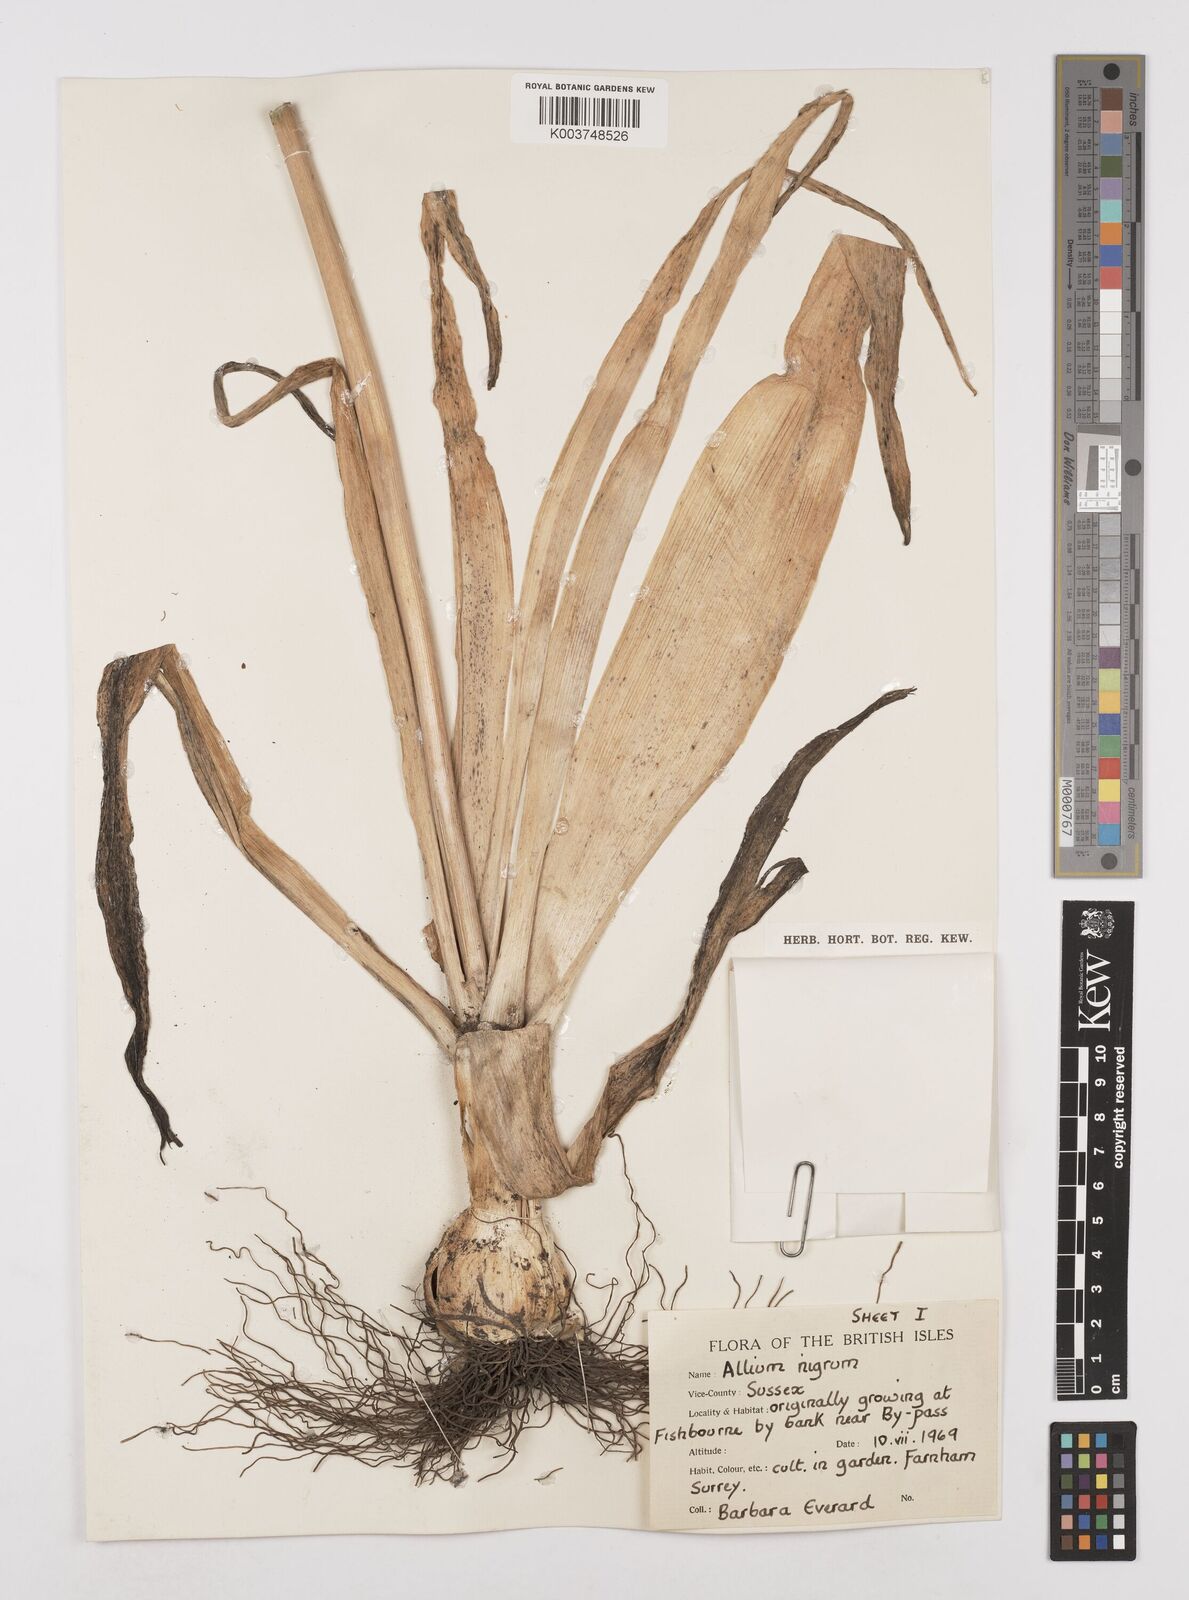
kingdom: Plantae
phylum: Tracheophyta
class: Liliopsida
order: Asparagales
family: Amaryllidaceae
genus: Allium
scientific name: Allium nigrum
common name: Black garlic
